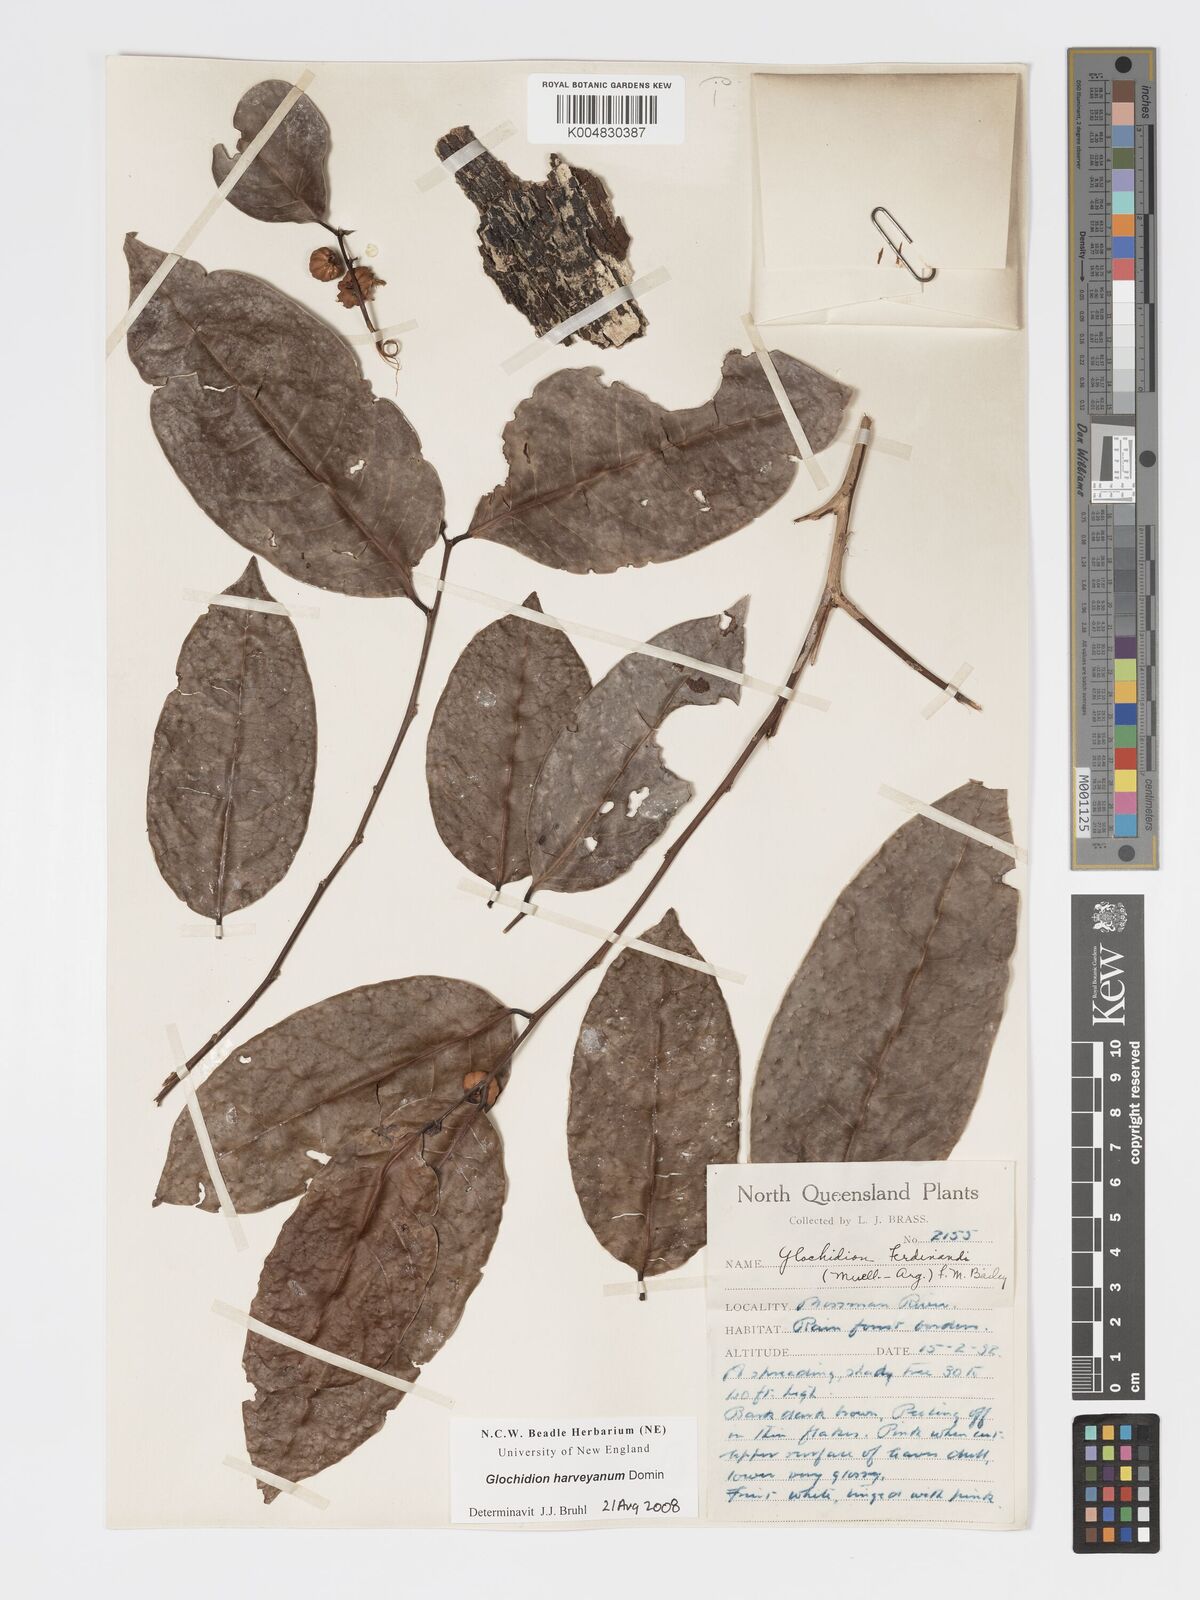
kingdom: Plantae
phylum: Tracheophyta
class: Magnoliopsida
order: Malpighiales
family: Phyllanthaceae
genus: Glochidion
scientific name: Glochidion harveyanum
